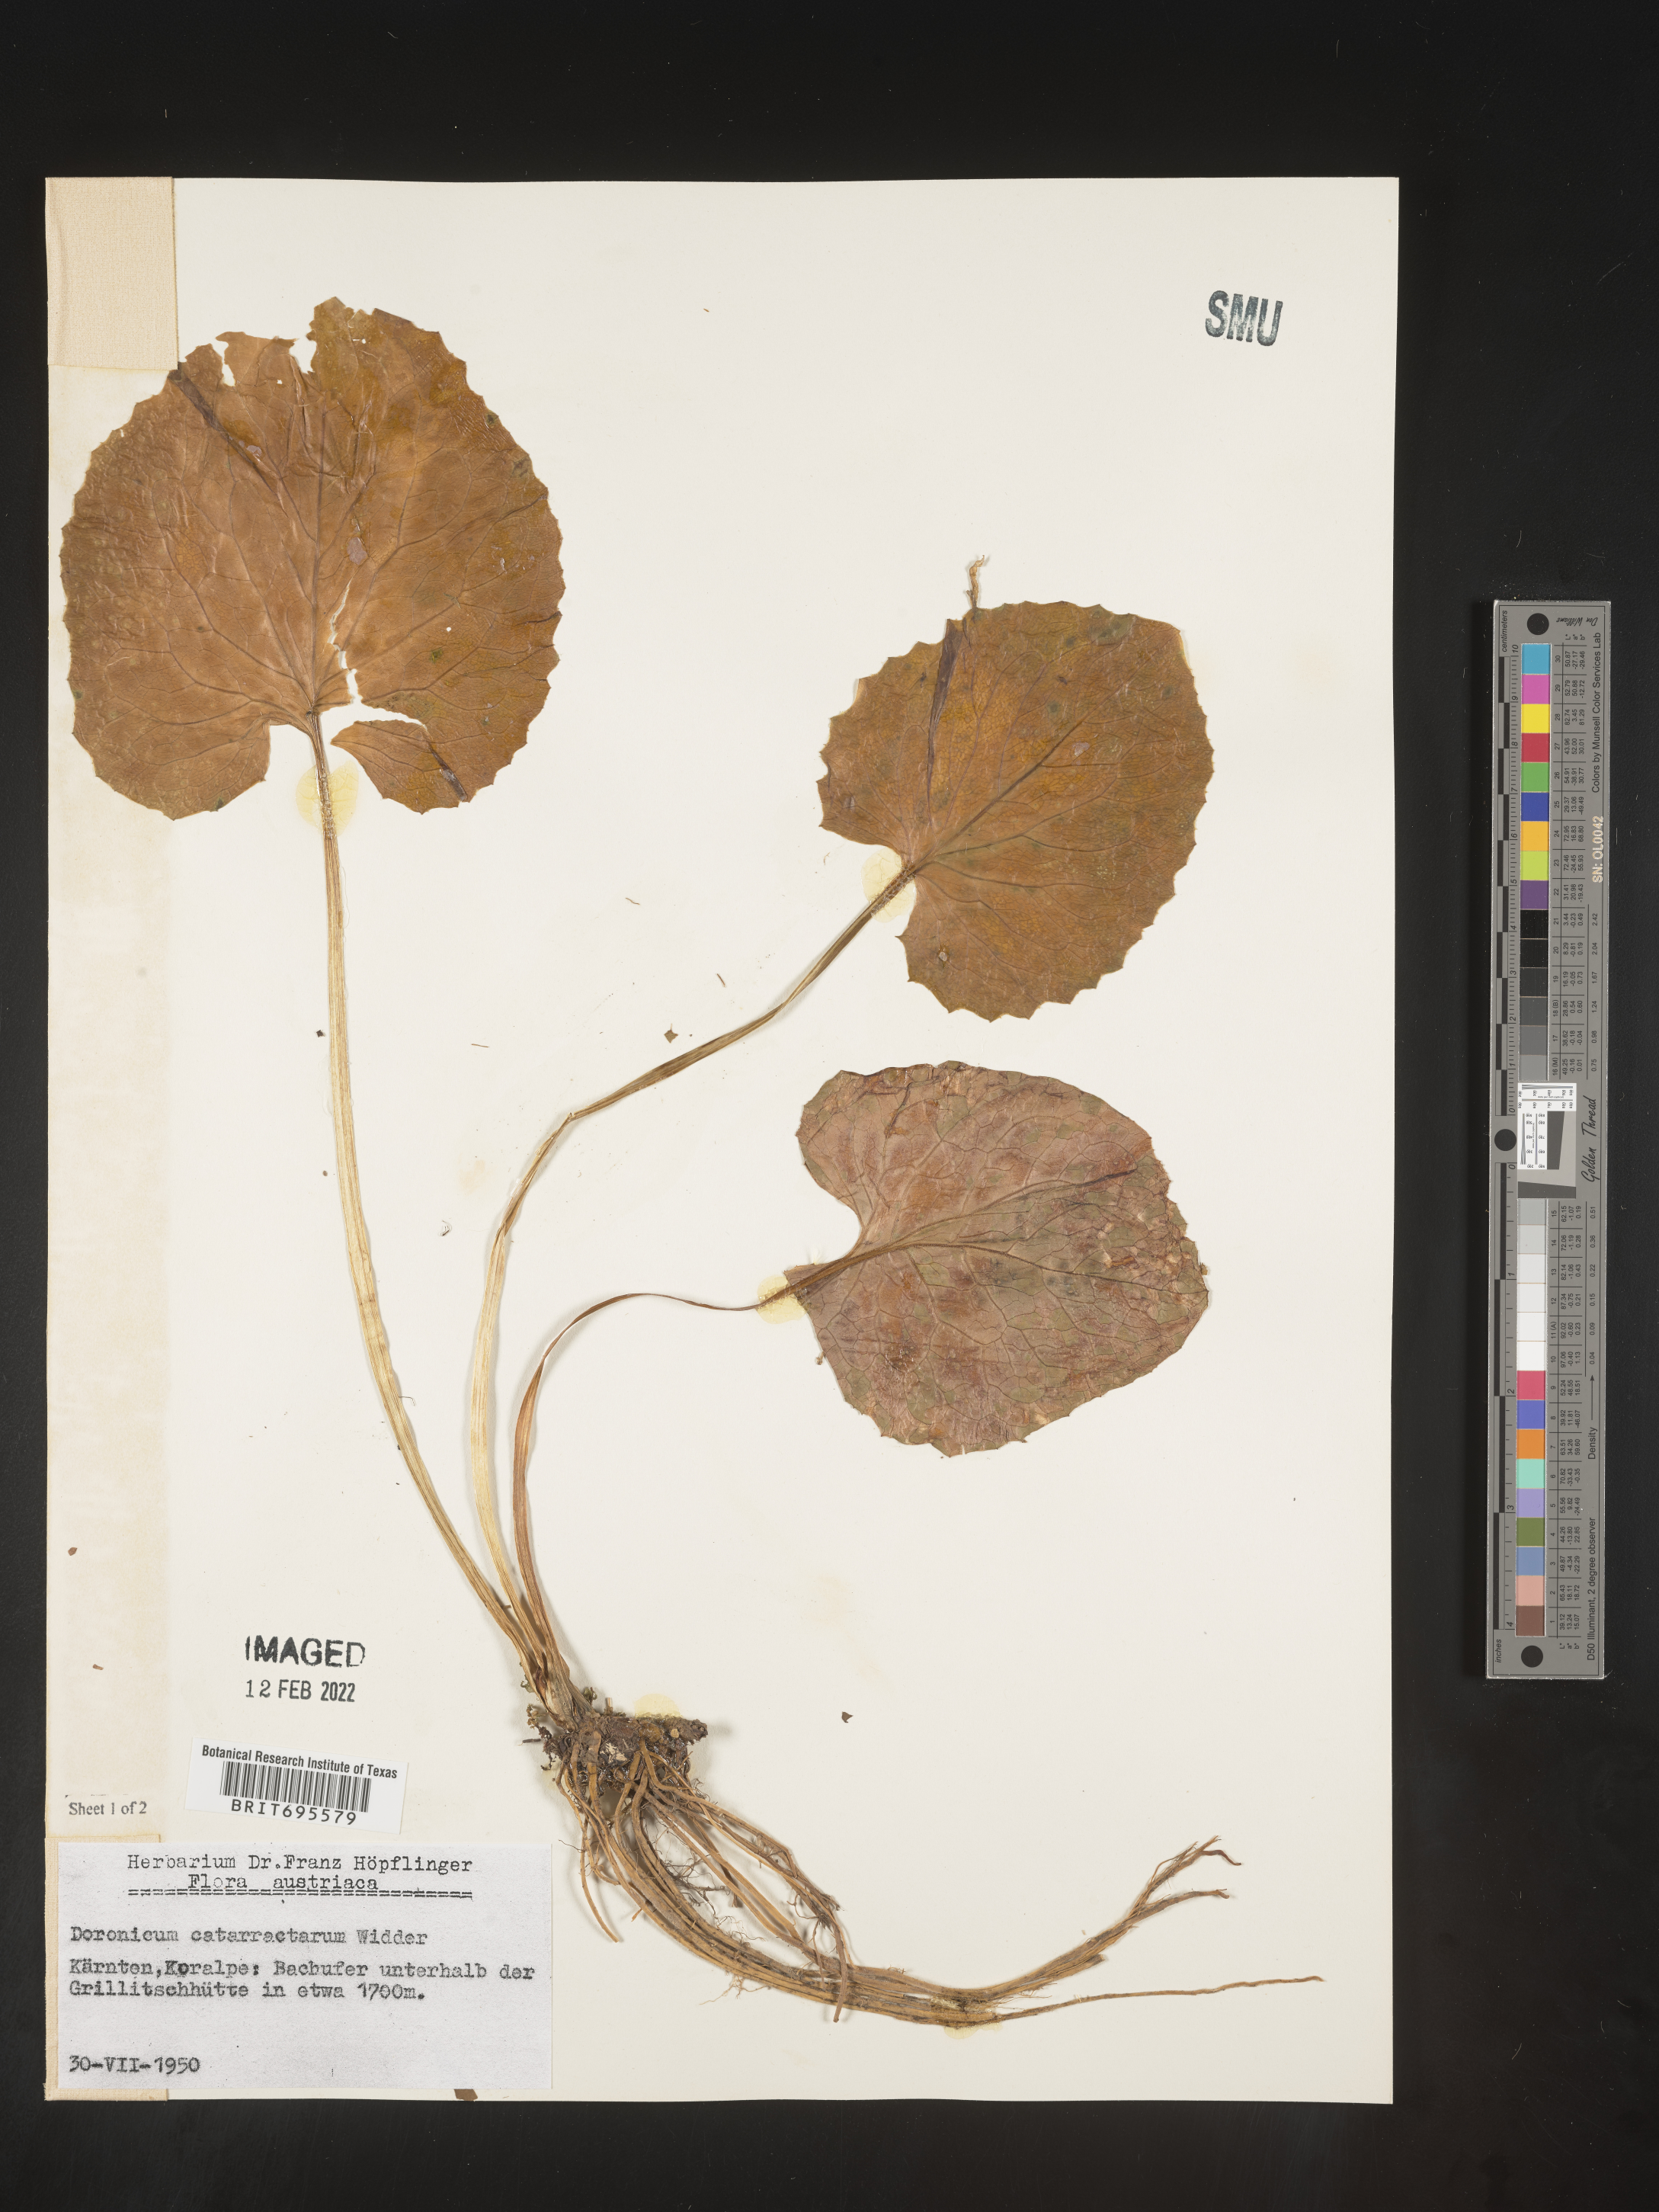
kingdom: Plantae
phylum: Tracheophyta
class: Magnoliopsida
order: Asterales
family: Asteraceae
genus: Doronicum
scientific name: Doronicum
